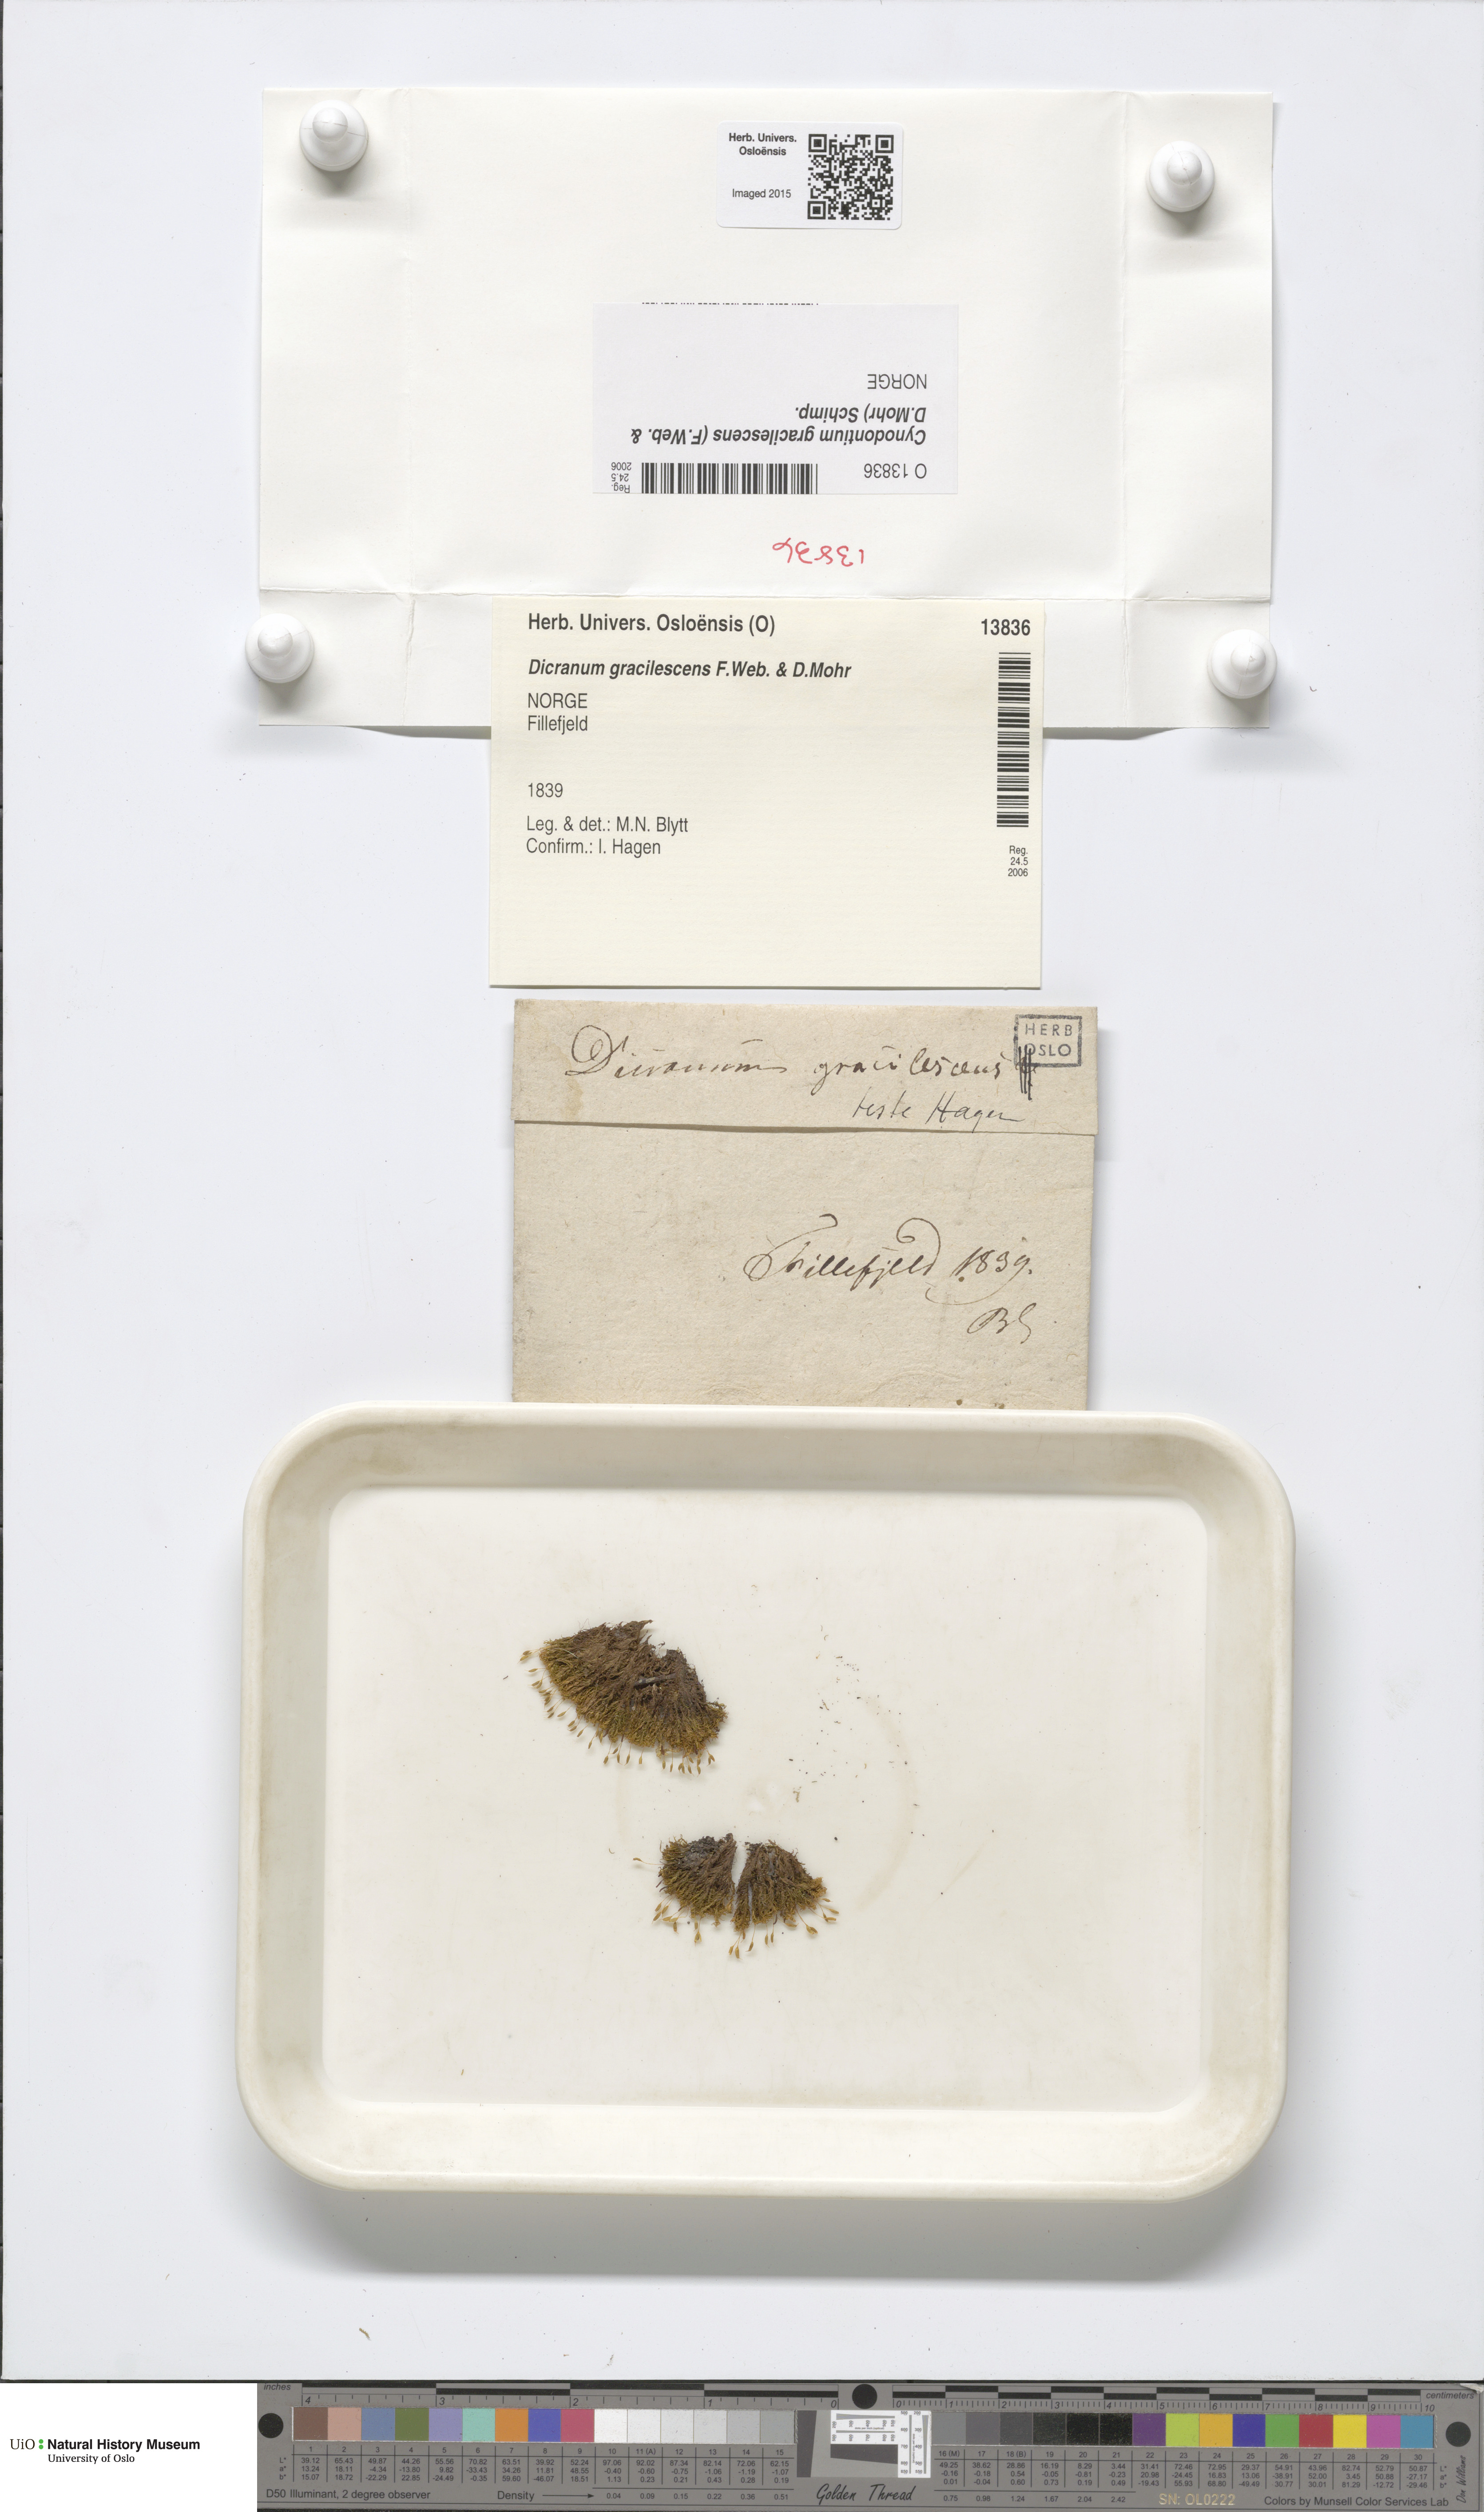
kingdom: Plantae
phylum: Bryophyta
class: Bryopsida
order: Dicranales
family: Rhabdoweisiaceae
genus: Cynodontium
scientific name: Cynodontium gracilescens
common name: Slender dogtooth moss
